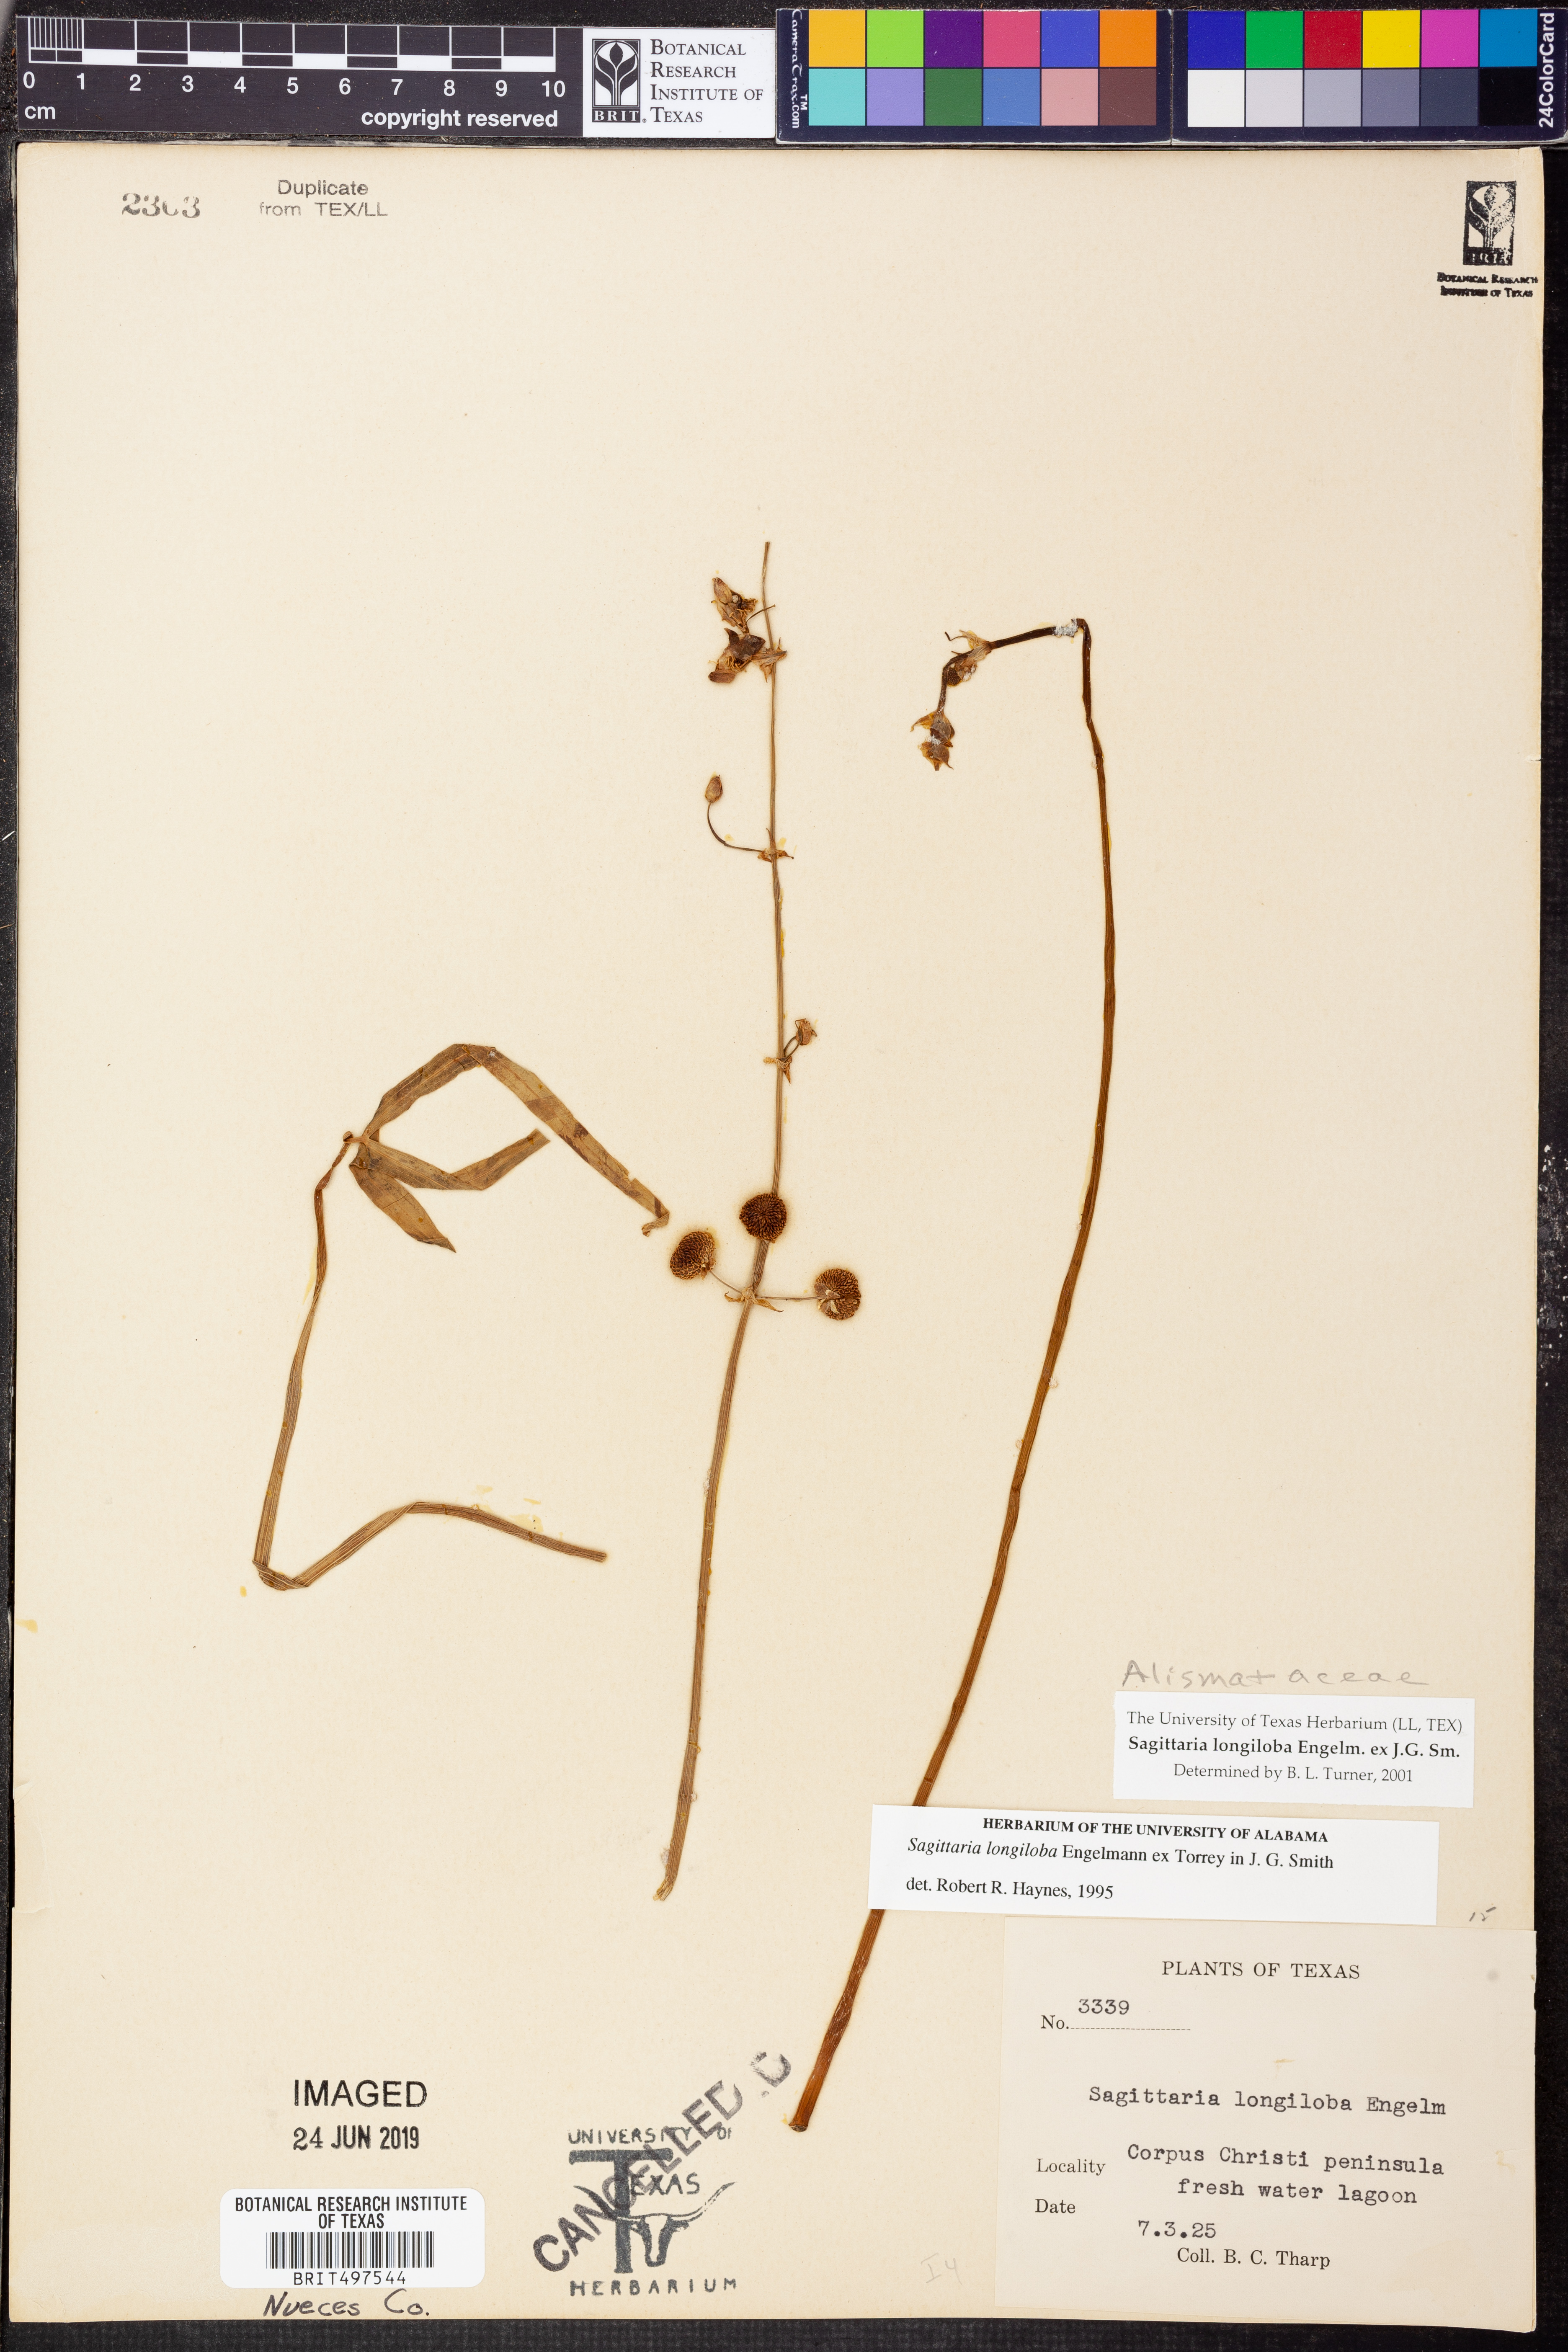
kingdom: Plantae
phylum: Tracheophyta
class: Liliopsida
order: Alismatales
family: Alismataceae
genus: Sagittaria
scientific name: Sagittaria longiloba
